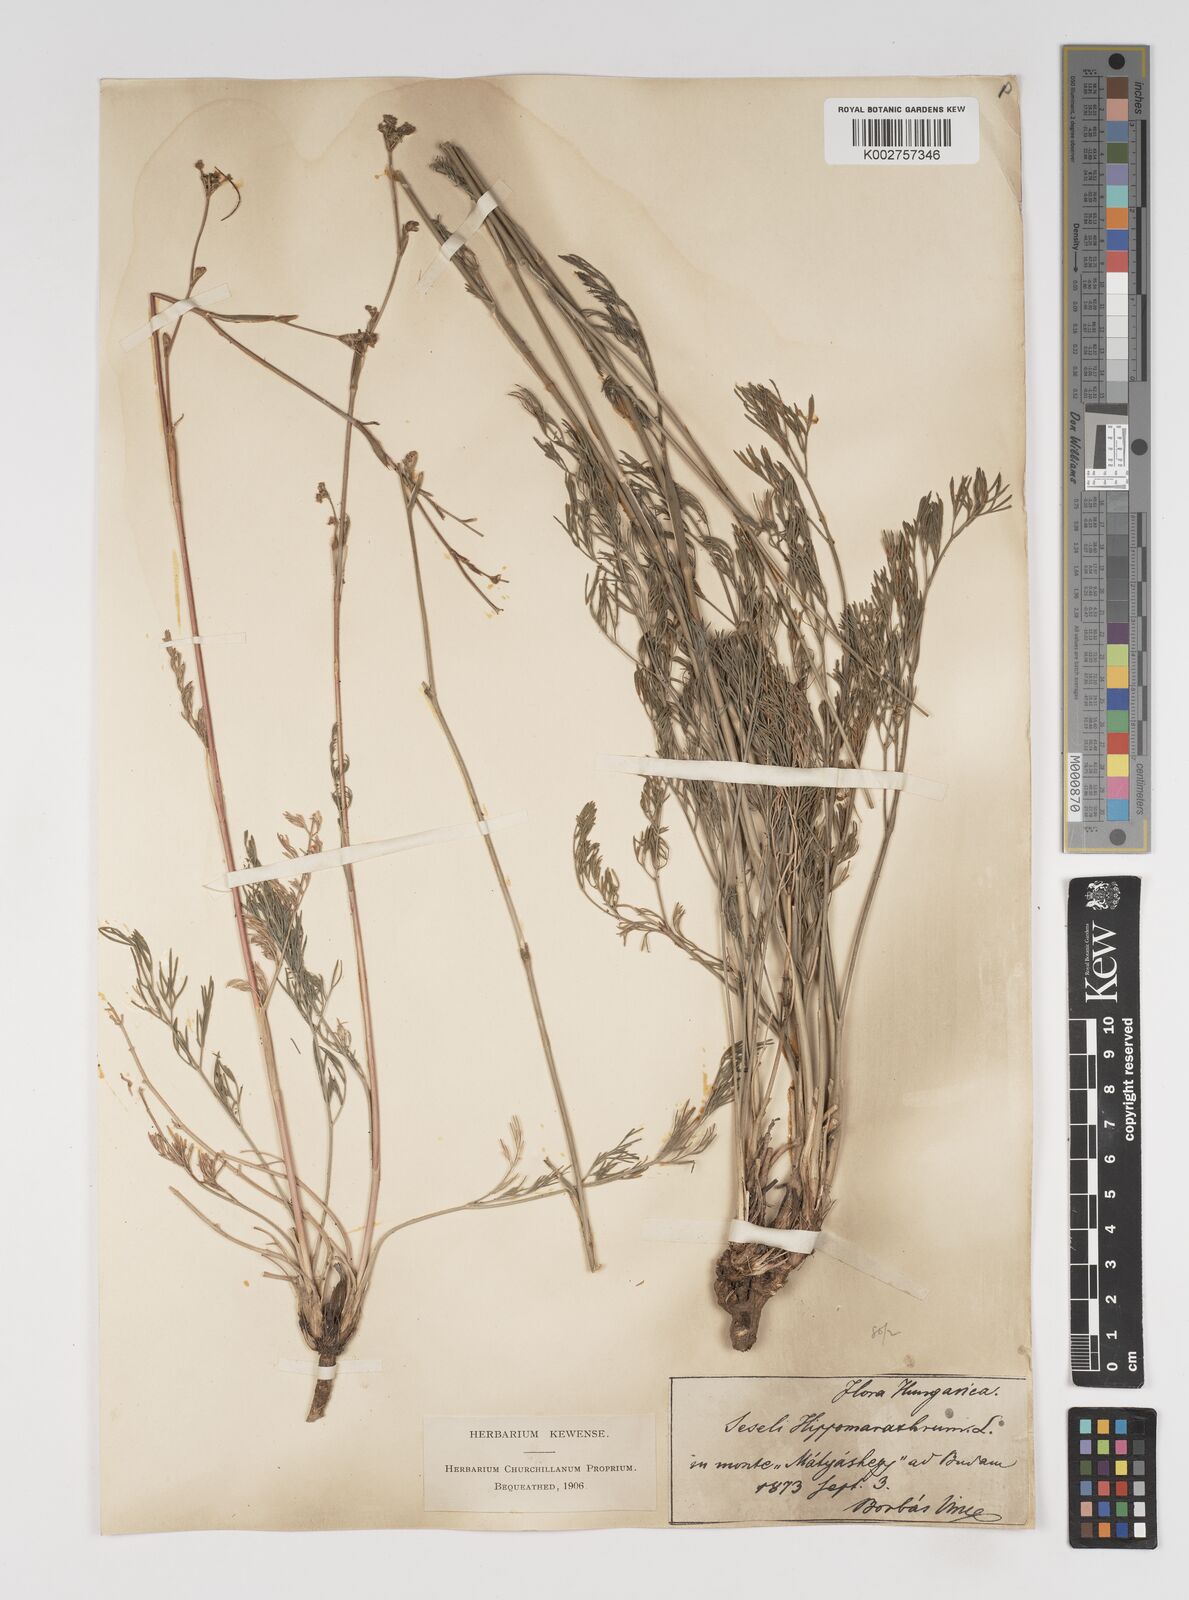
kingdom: Plantae
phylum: Tracheophyta
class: Magnoliopsida
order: Apiales
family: Apiaceae
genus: Seseli
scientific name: Seseli
